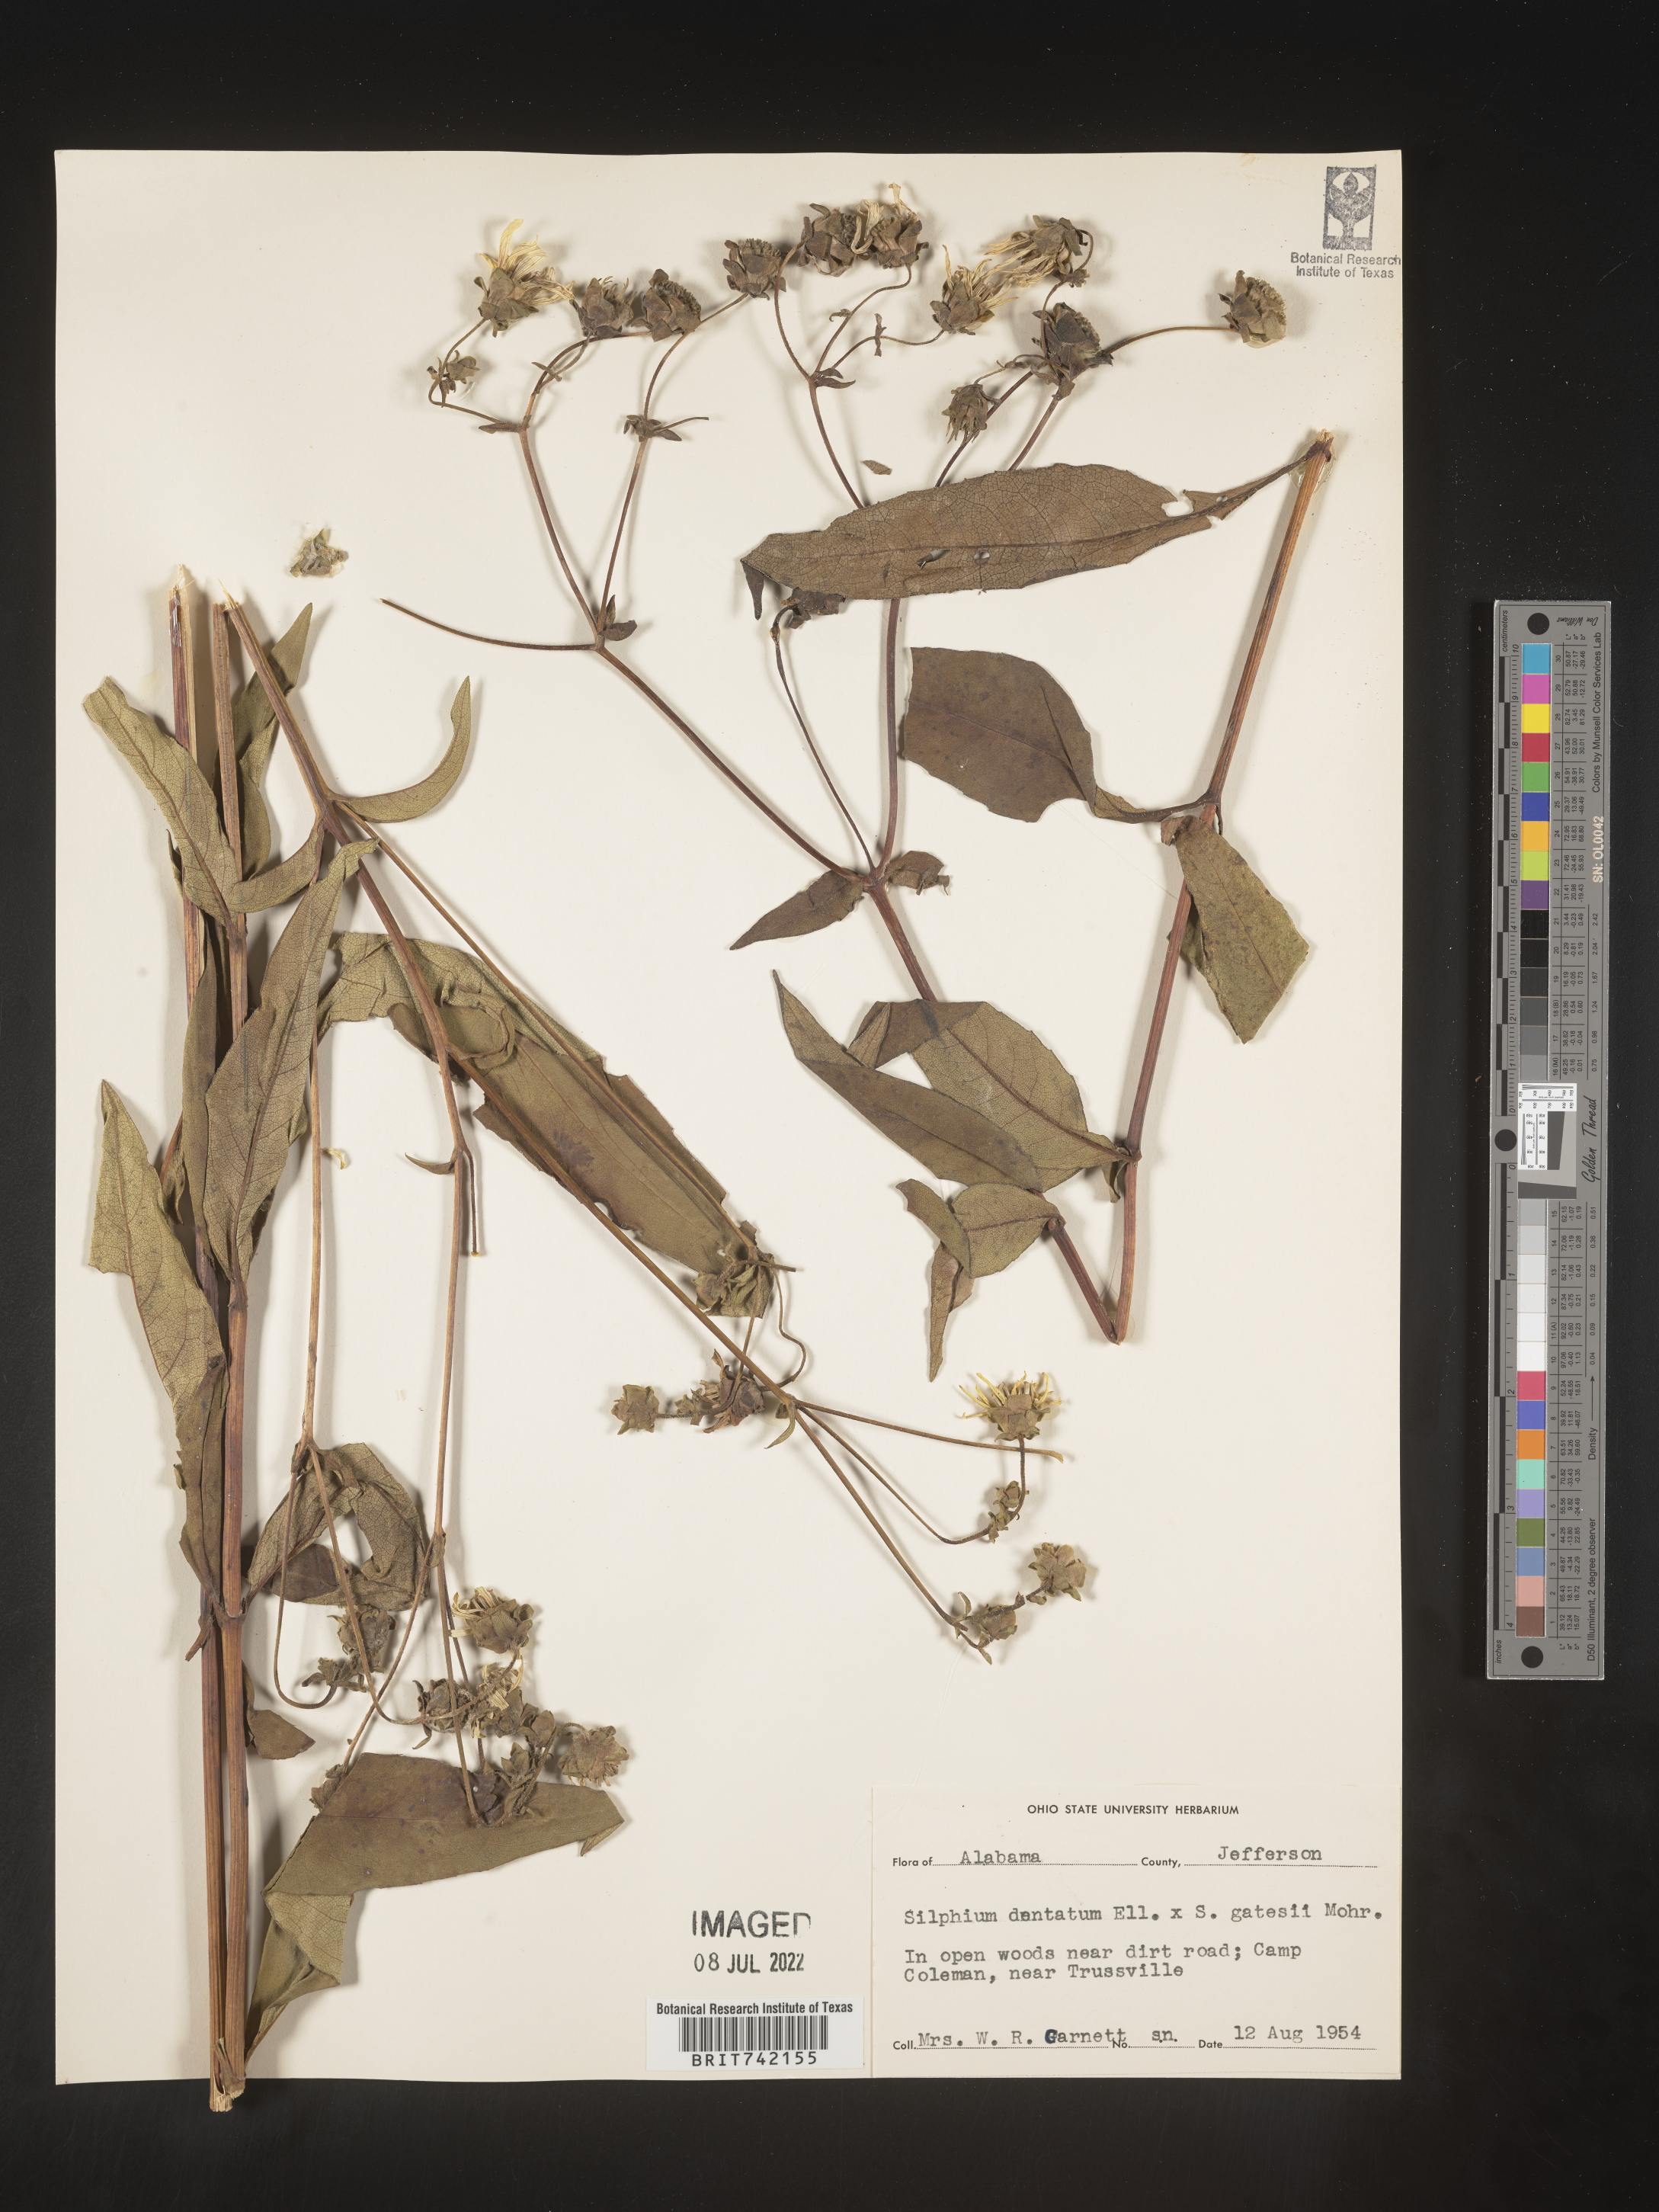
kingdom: Plantae
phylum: Tracheophyta
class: Magnoliopsida
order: Asterales
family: Asteraceae
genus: Silphium
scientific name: Silphium glabrum
